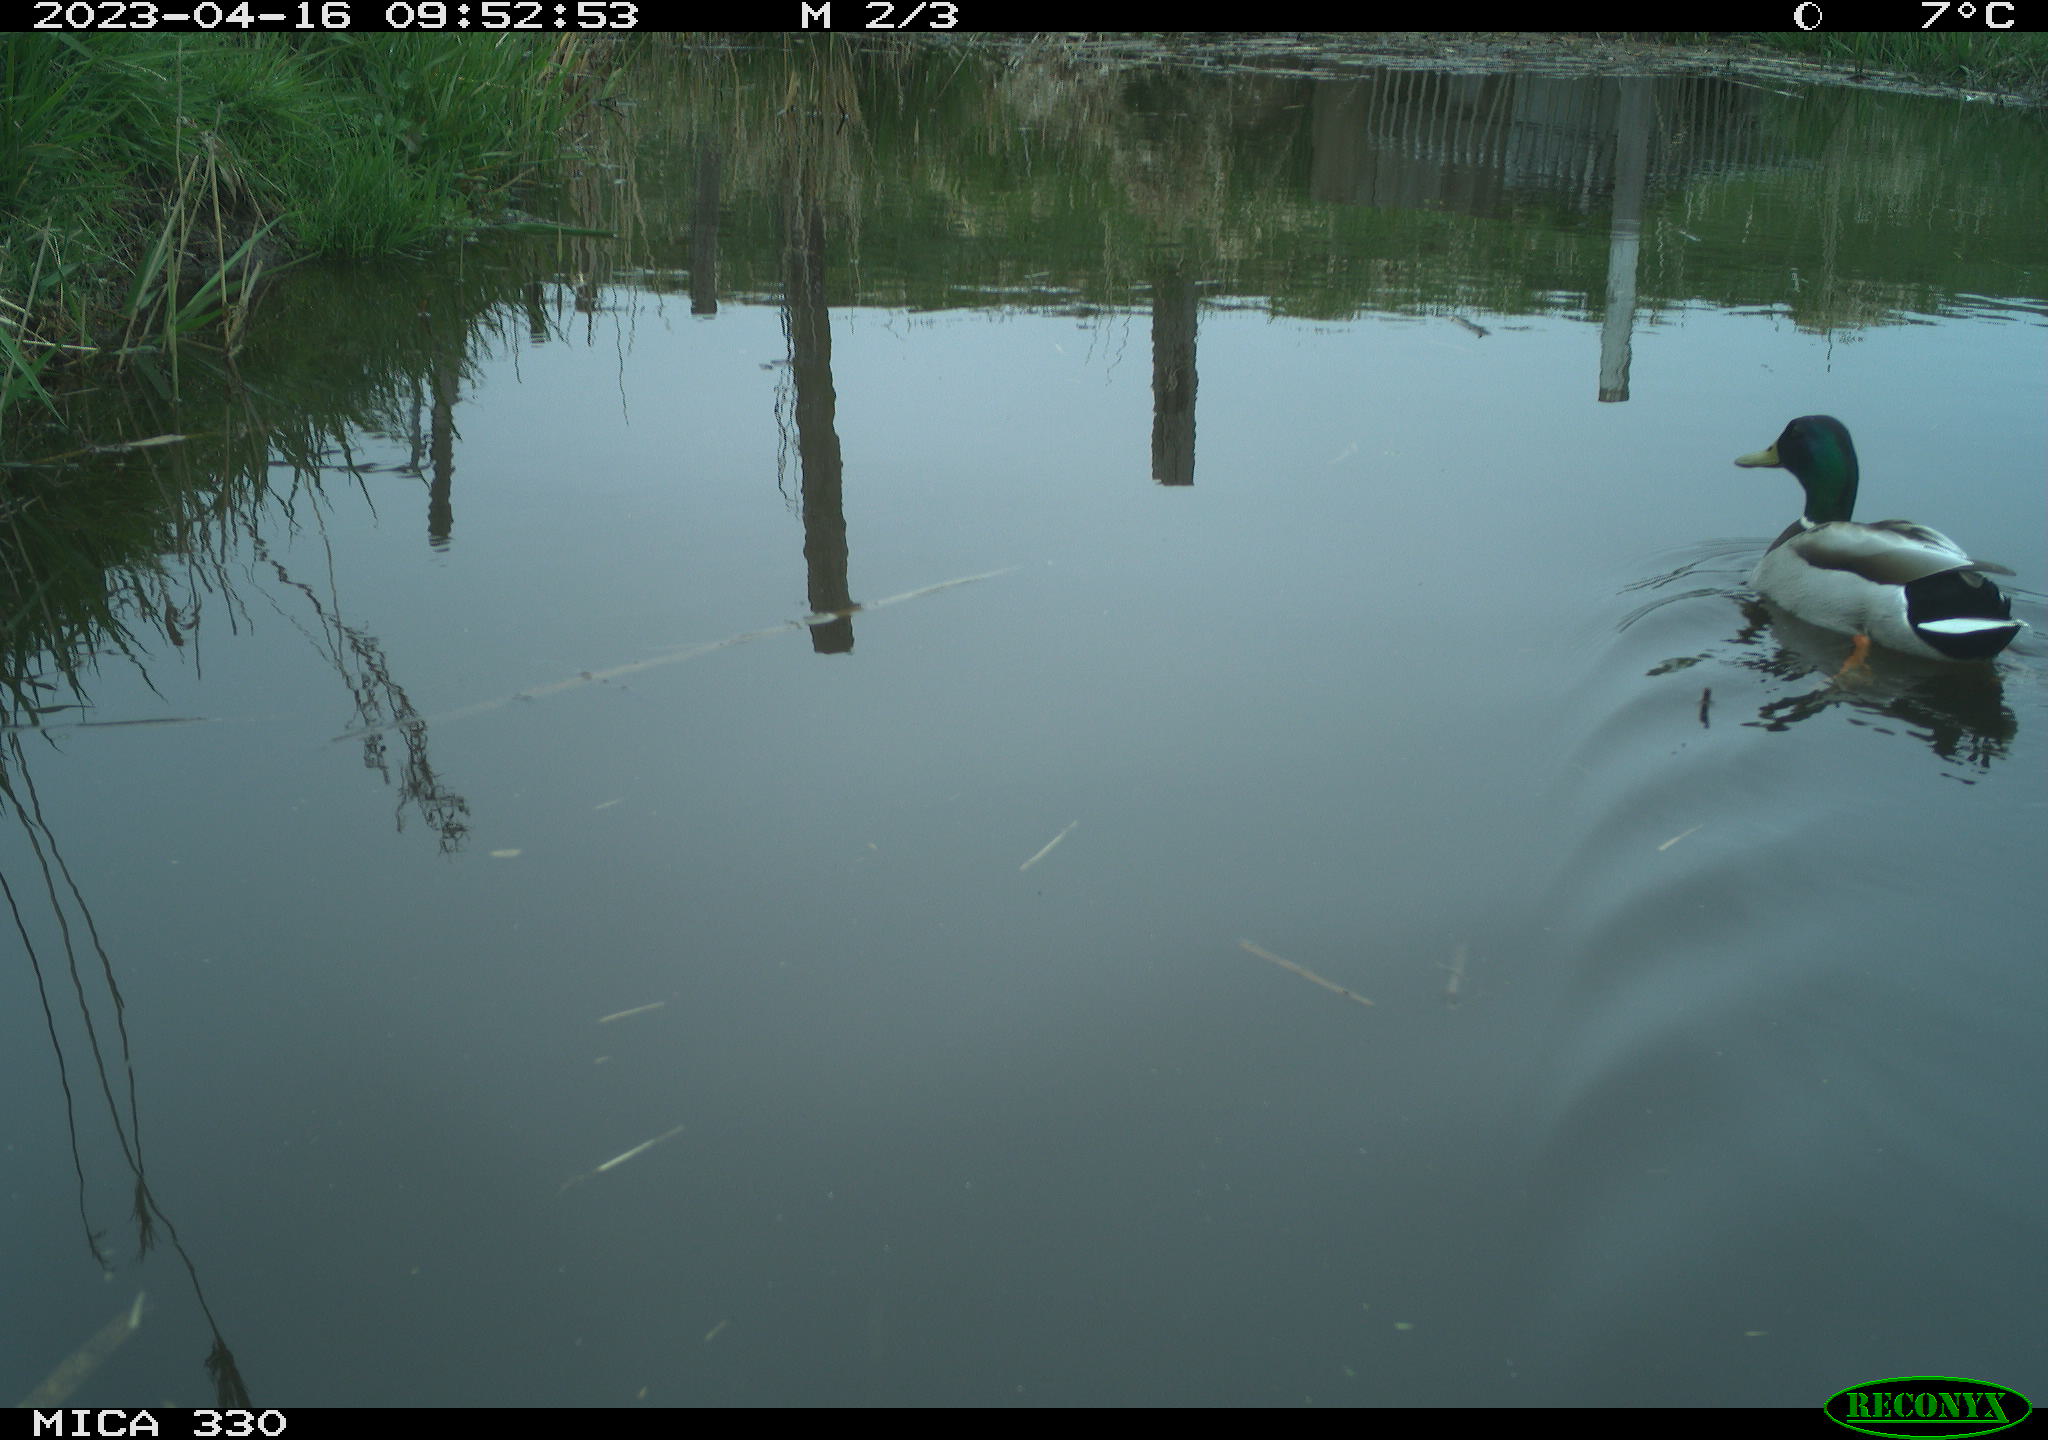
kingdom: Animalia
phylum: Chordata
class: Aves
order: Anseriformes
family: Anatidae
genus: Anas
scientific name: Anas
